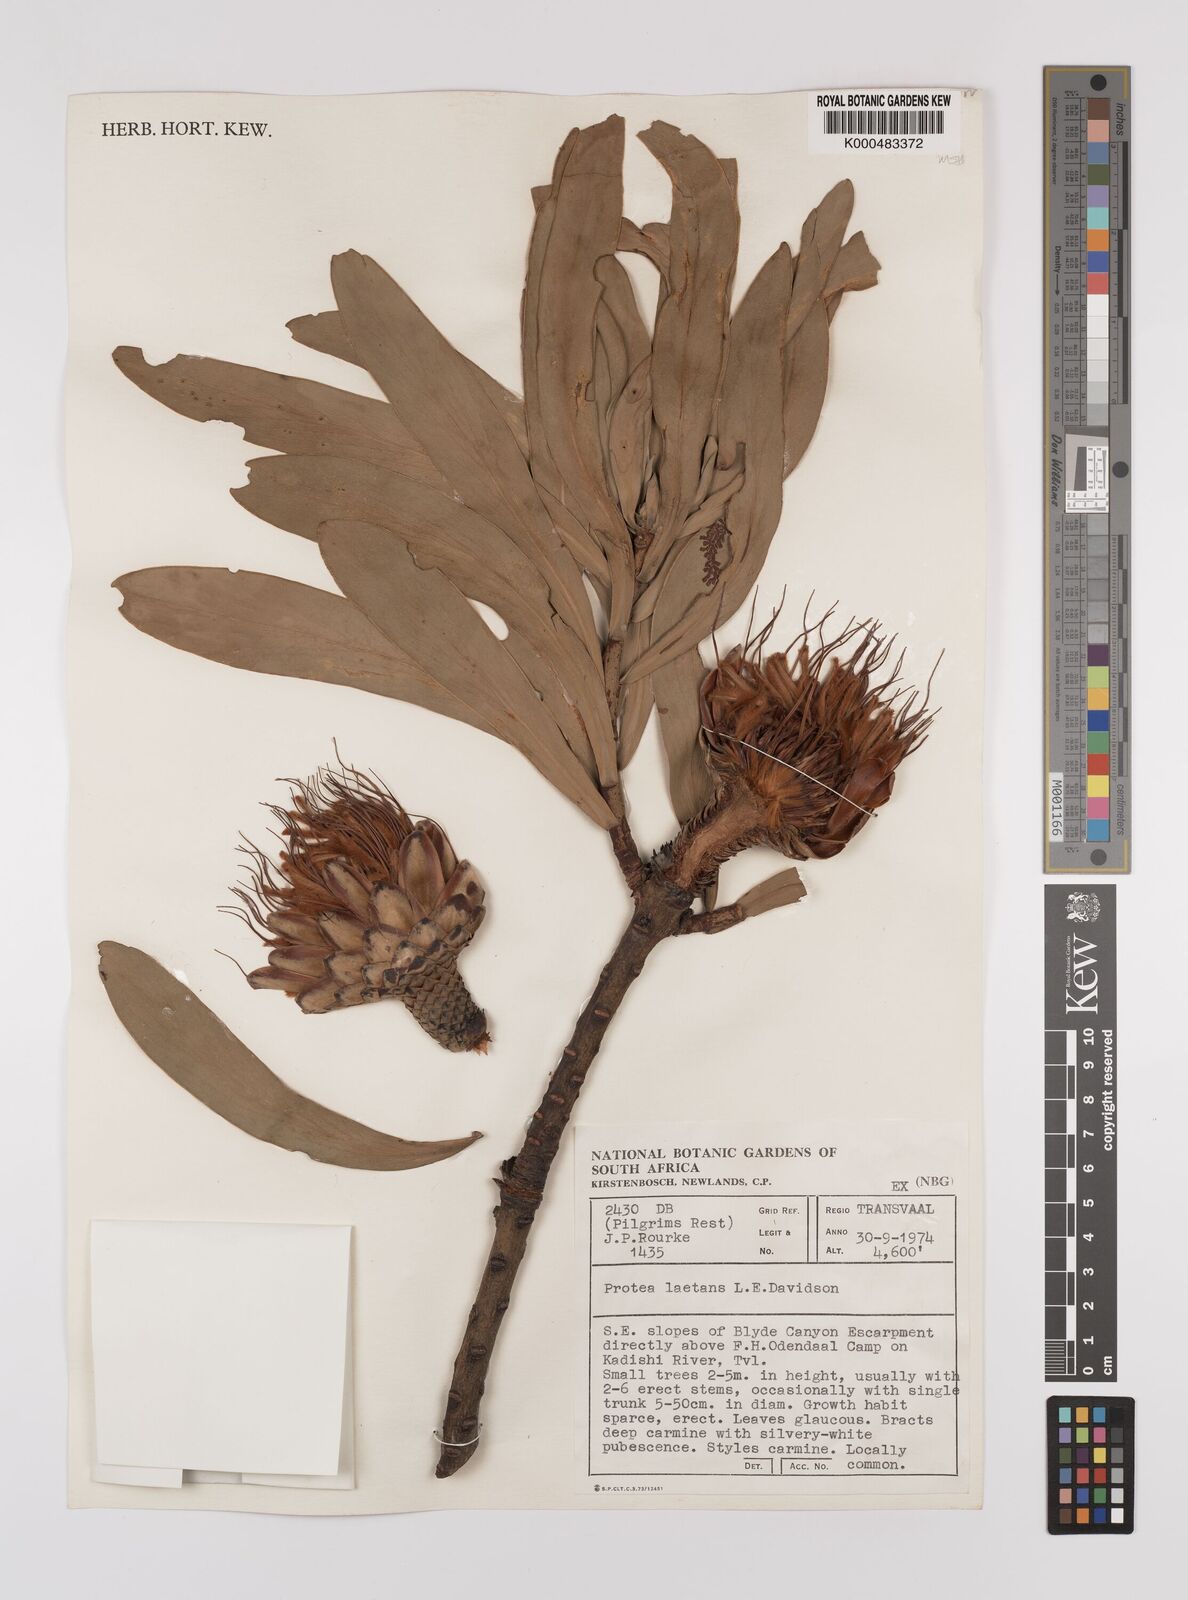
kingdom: Plantae
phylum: Tracheophyta
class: Magnoliopsida
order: Proteales
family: Proteaceae
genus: Protea
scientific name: Protea laetans
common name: Blyde protea
